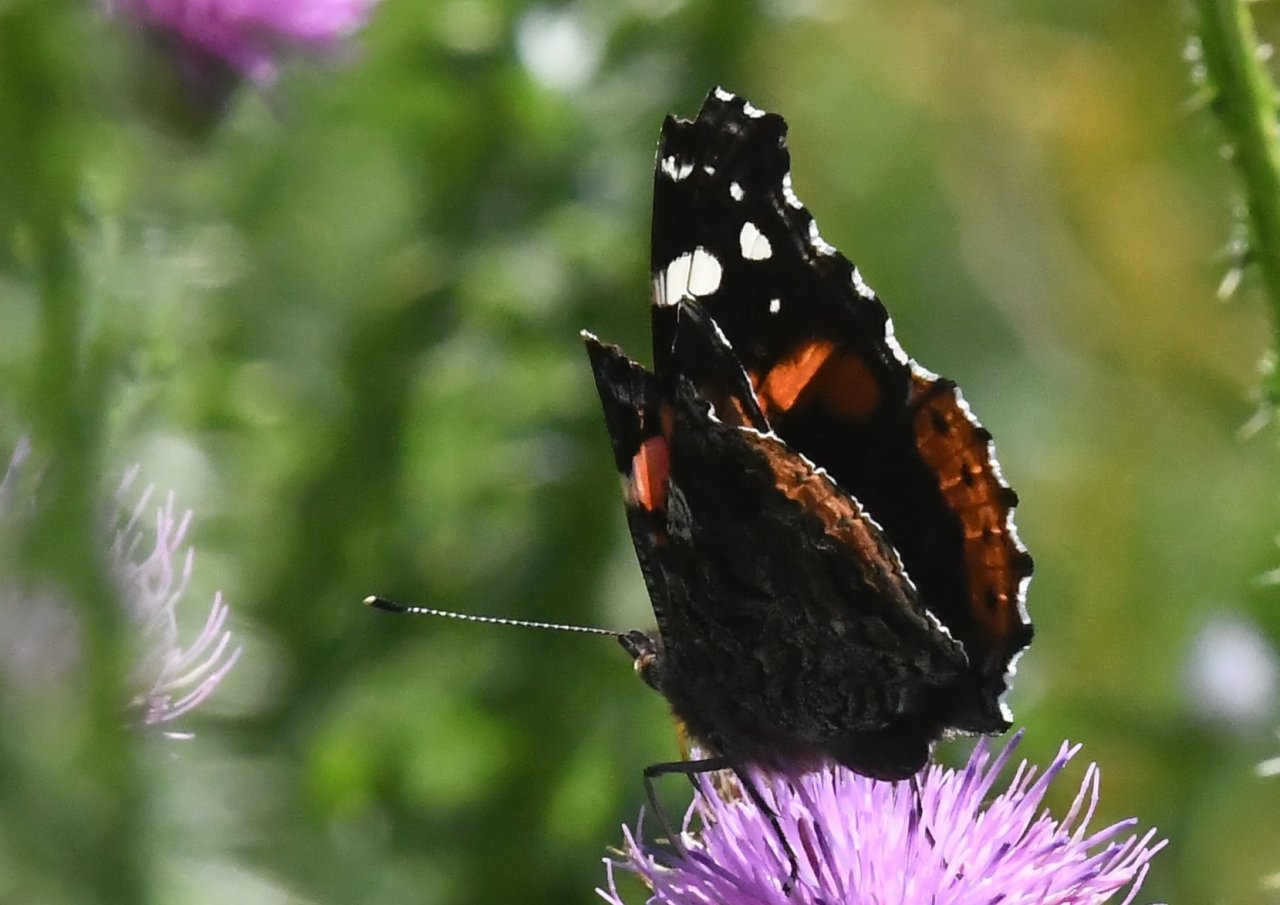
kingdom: Animalia
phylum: Arthropoda
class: Insecta
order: Lepidoptera
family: Nymphalidae
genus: Vanessa
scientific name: Vanessa atalanta
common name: Red Admiral
